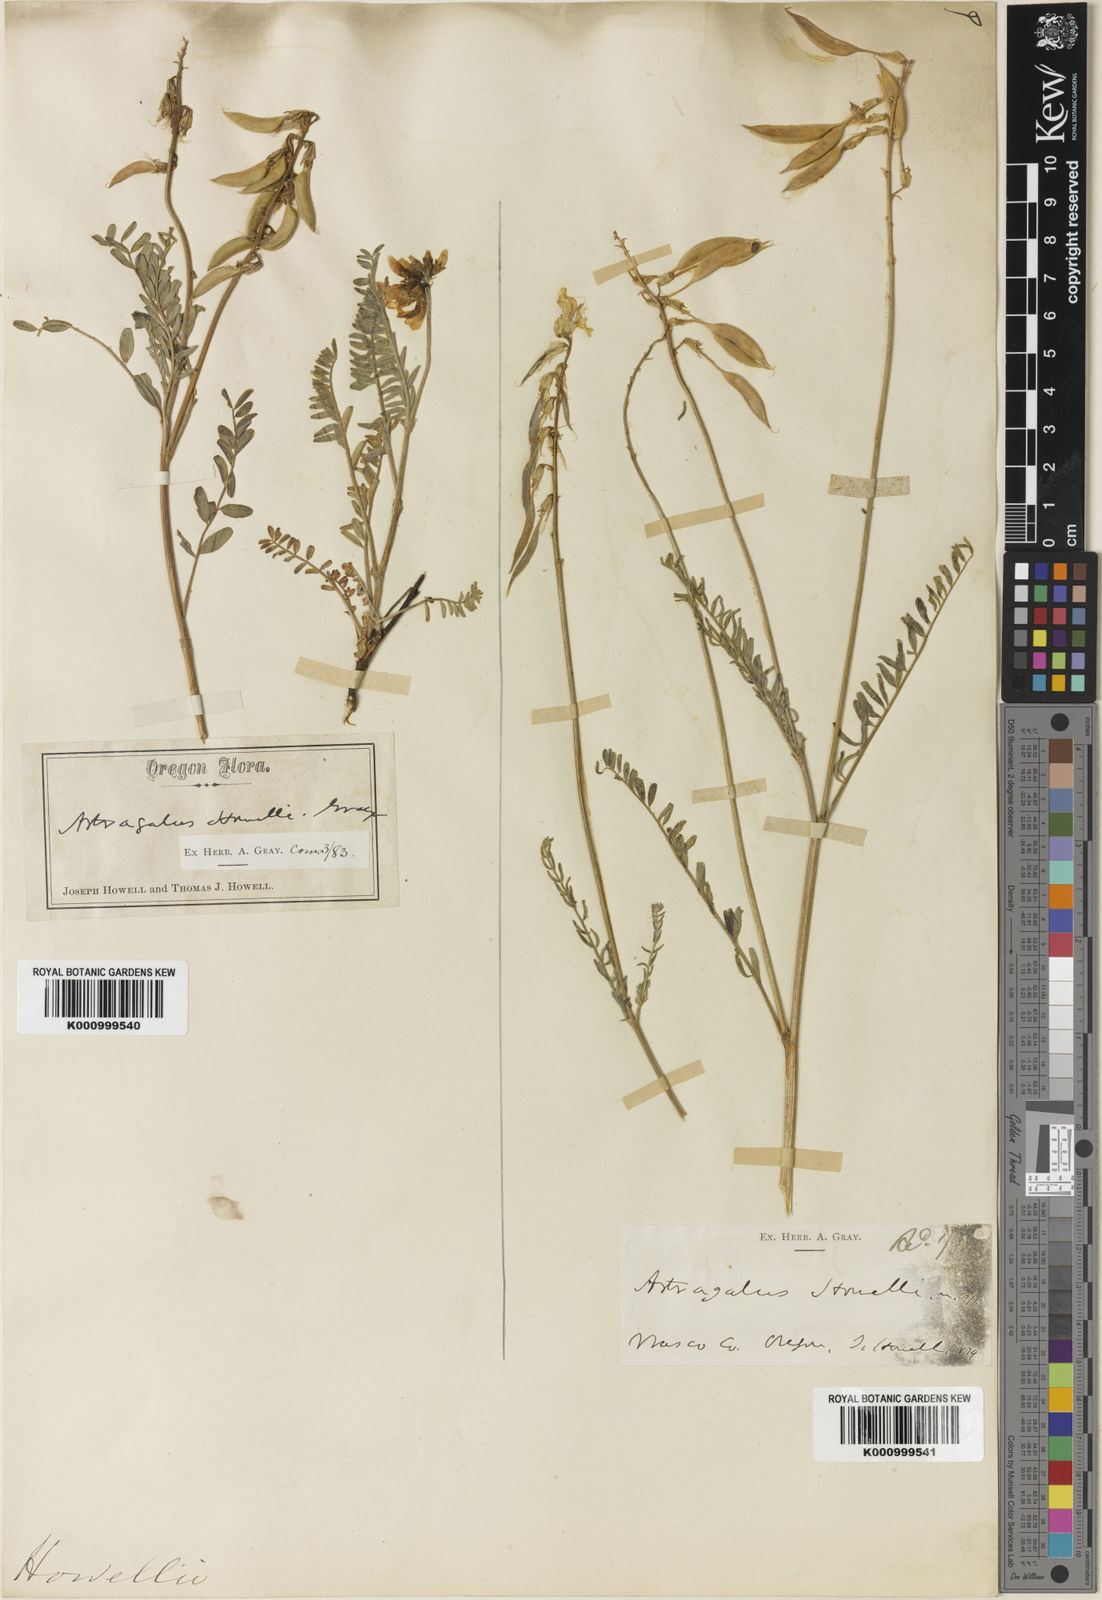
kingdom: Plantae
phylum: Tracheophyta
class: Magnoliopsida
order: Fabales
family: Fabaceae
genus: Astragalus
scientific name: Astragalus howellii
